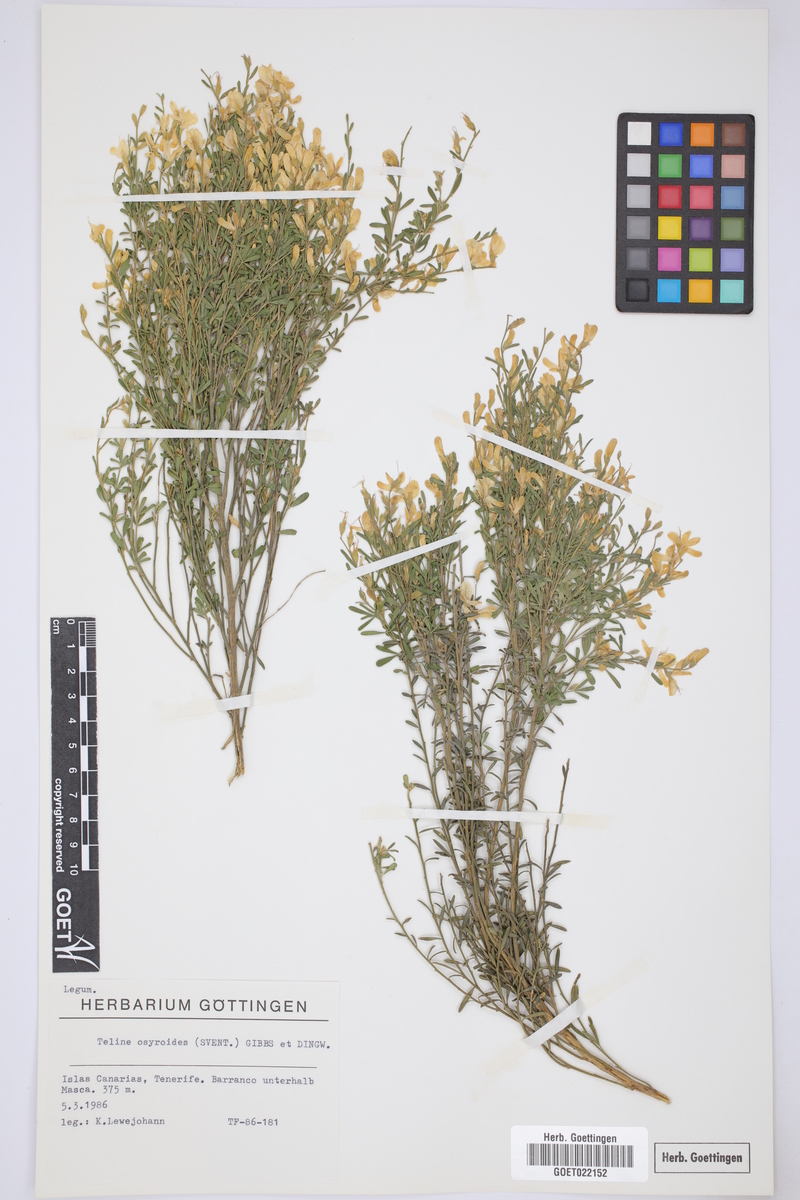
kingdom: Plantae
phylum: Tracheophyta
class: Magnoliopsida
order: Fabales
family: Fabaceae
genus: Cytisus
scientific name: Cytisus osyroides
